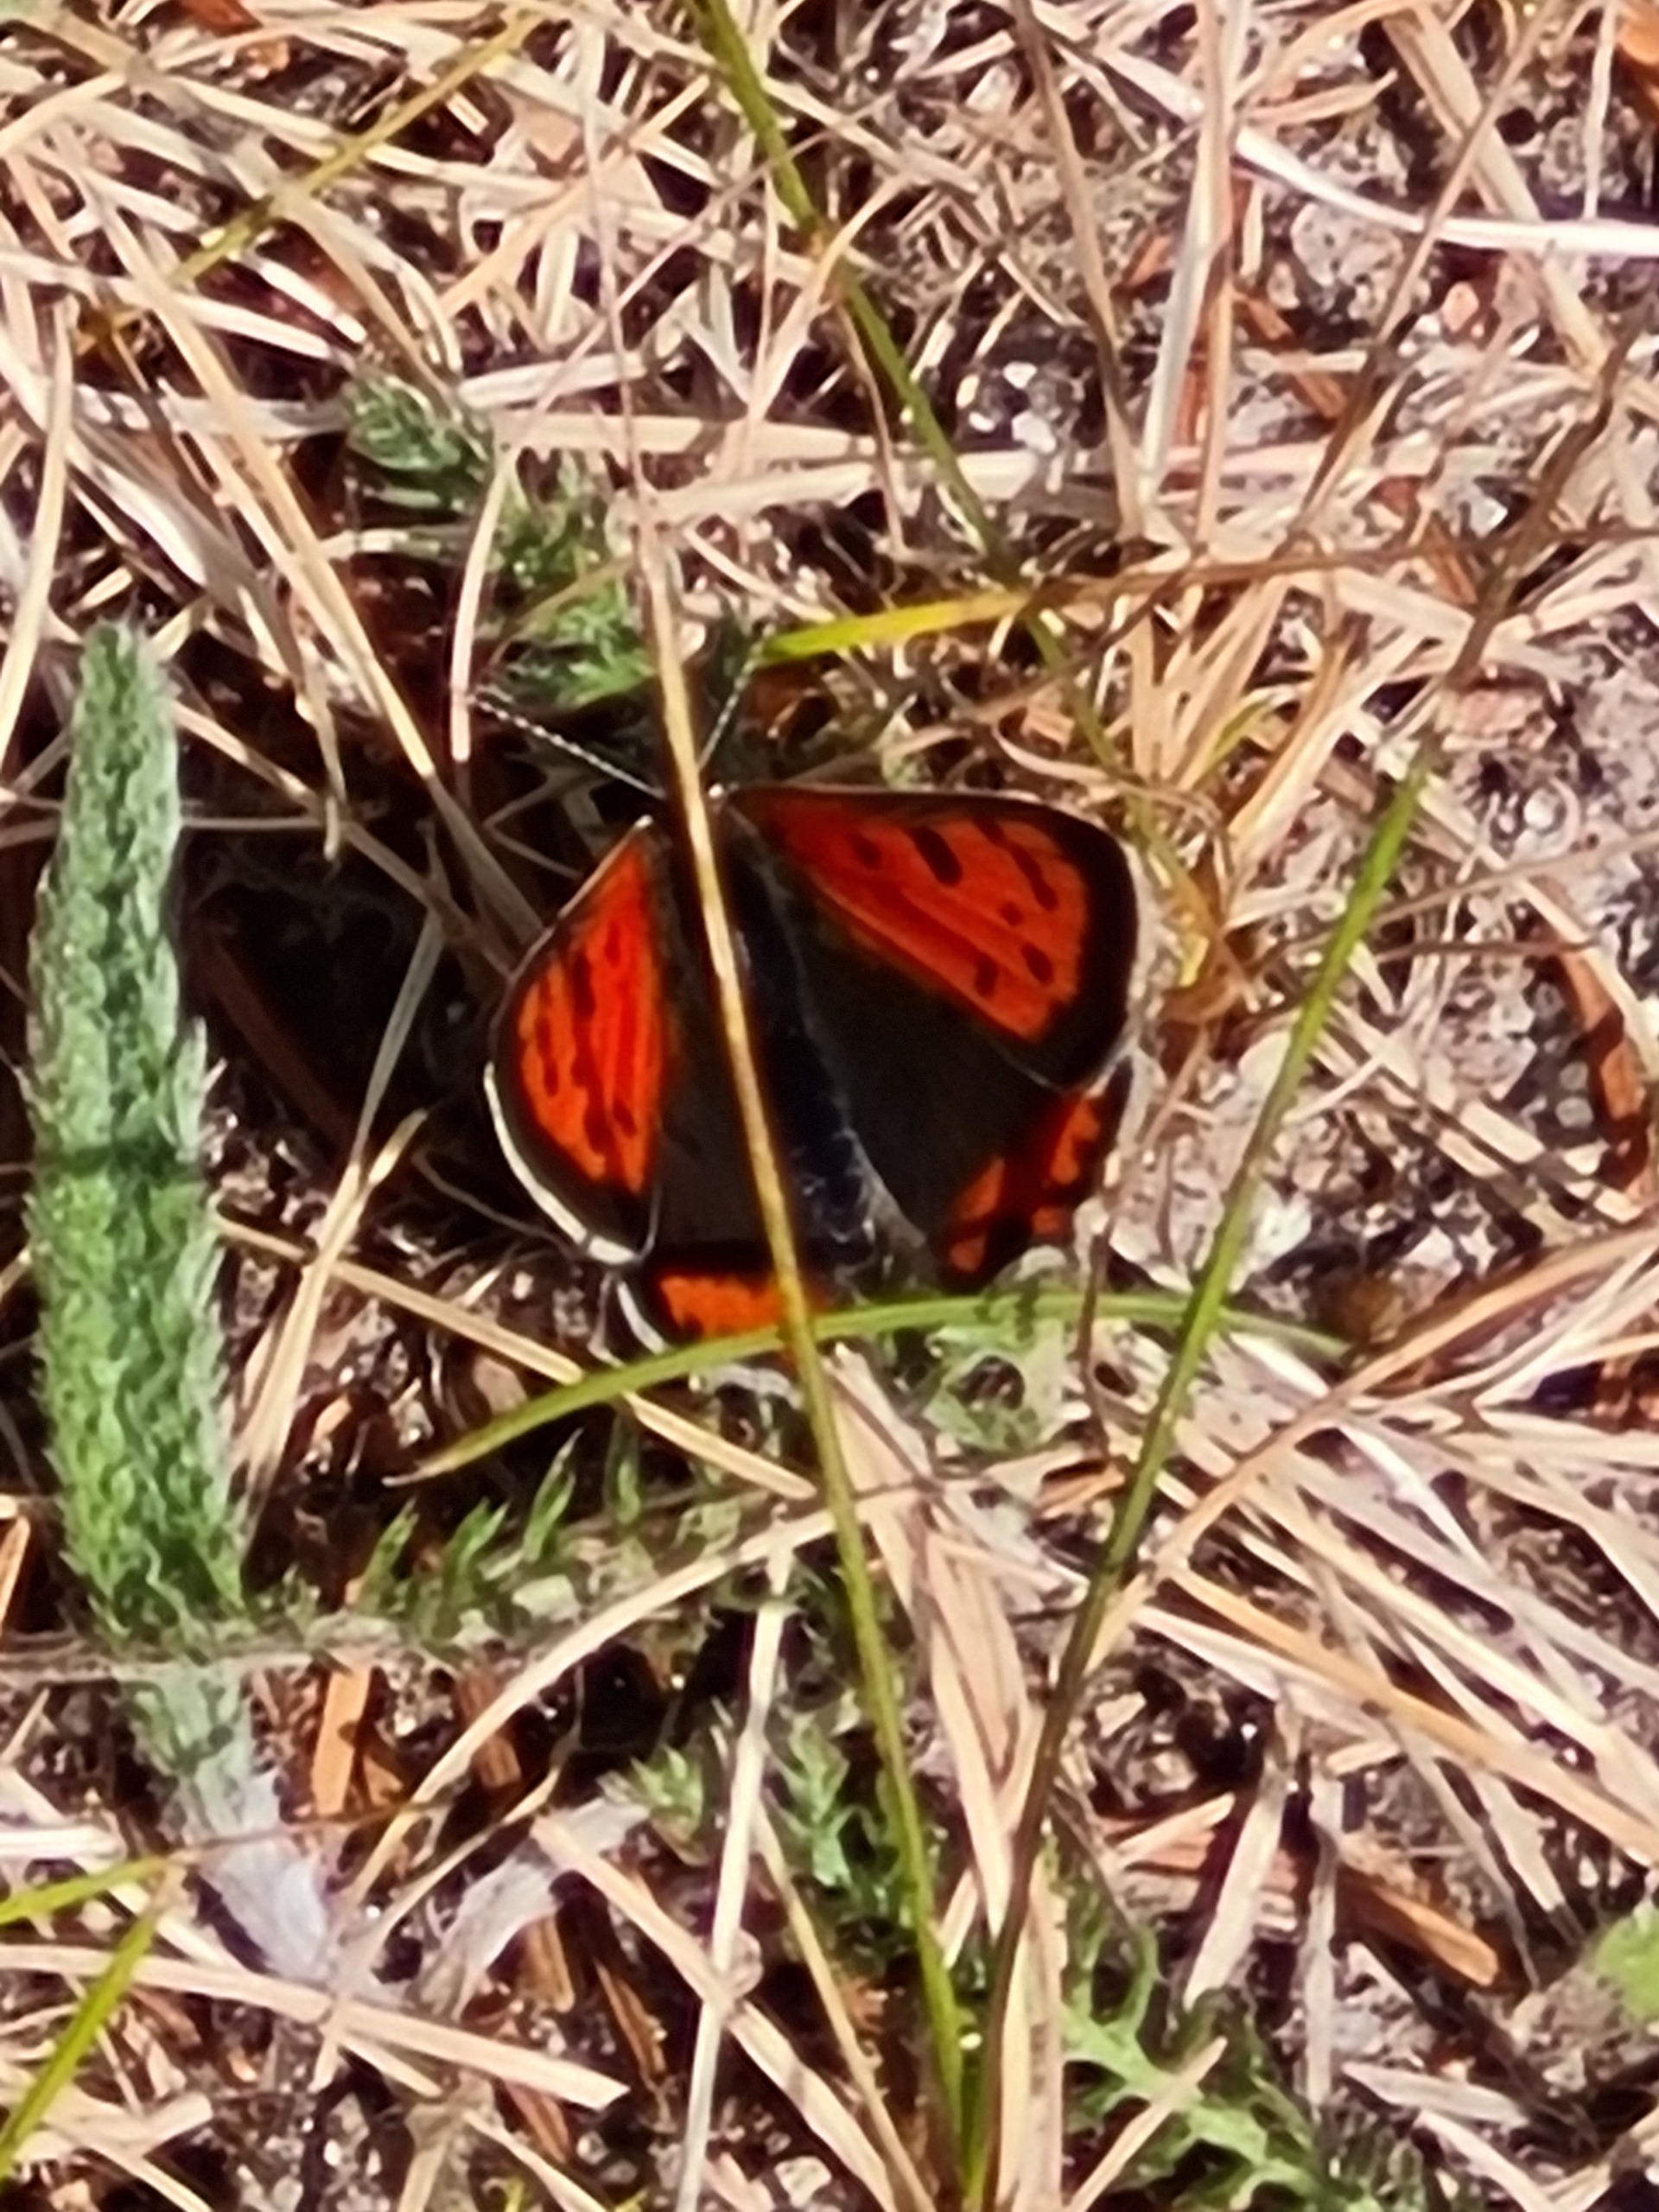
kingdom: Animalia
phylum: Arthropoda
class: Insecta
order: Lepidoptera
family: Lycaenidae
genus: Lycaena
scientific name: Lycaena phlaeas
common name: Lille ildfugl
